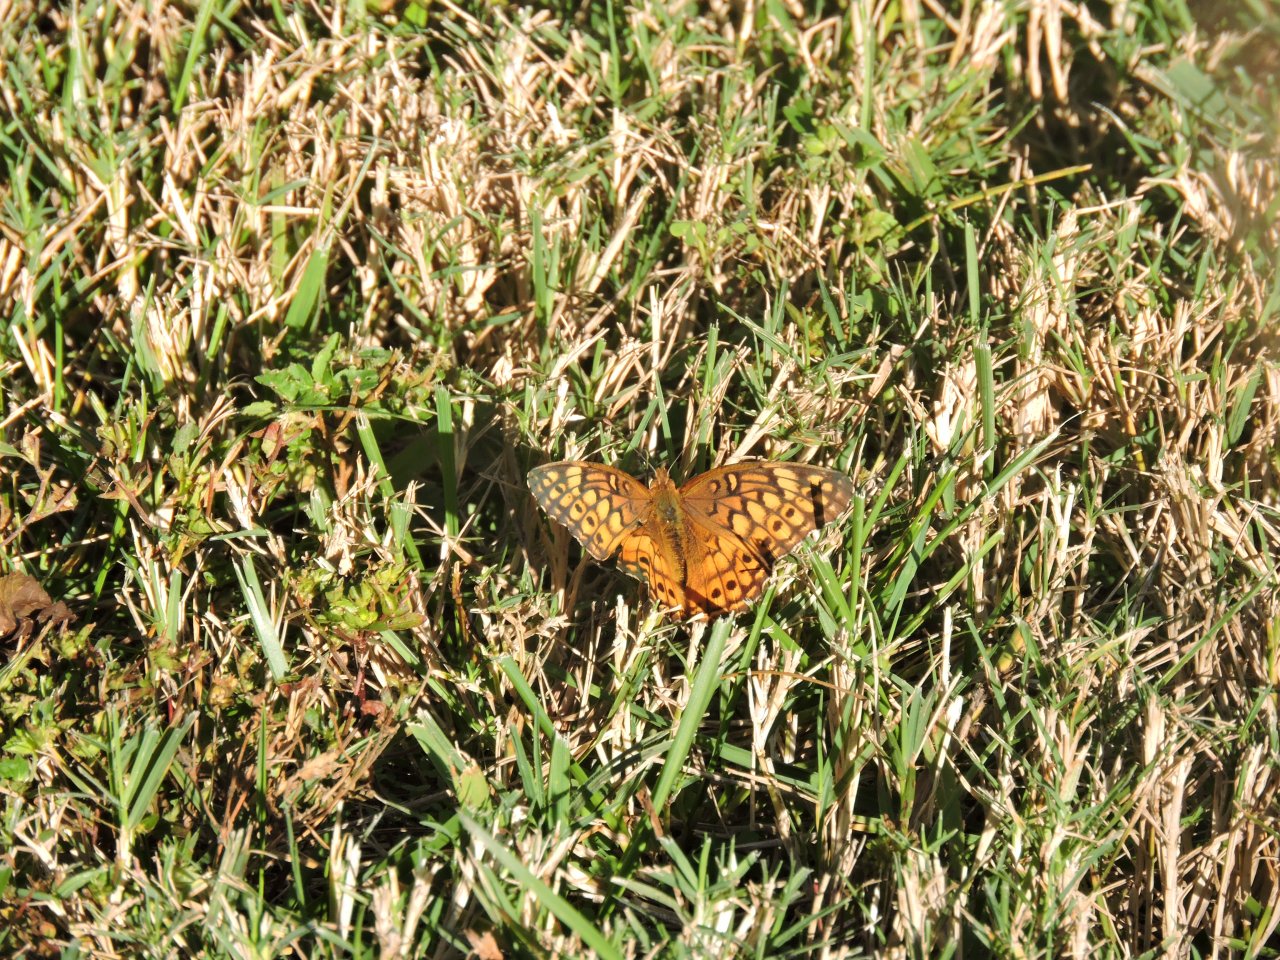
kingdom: Animalia
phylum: Arthropoda
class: Insecta
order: Lepidoptera
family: Nymphalidae
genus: Euptoieta
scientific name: Euptoieta claudia
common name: Variegated Fritillary
